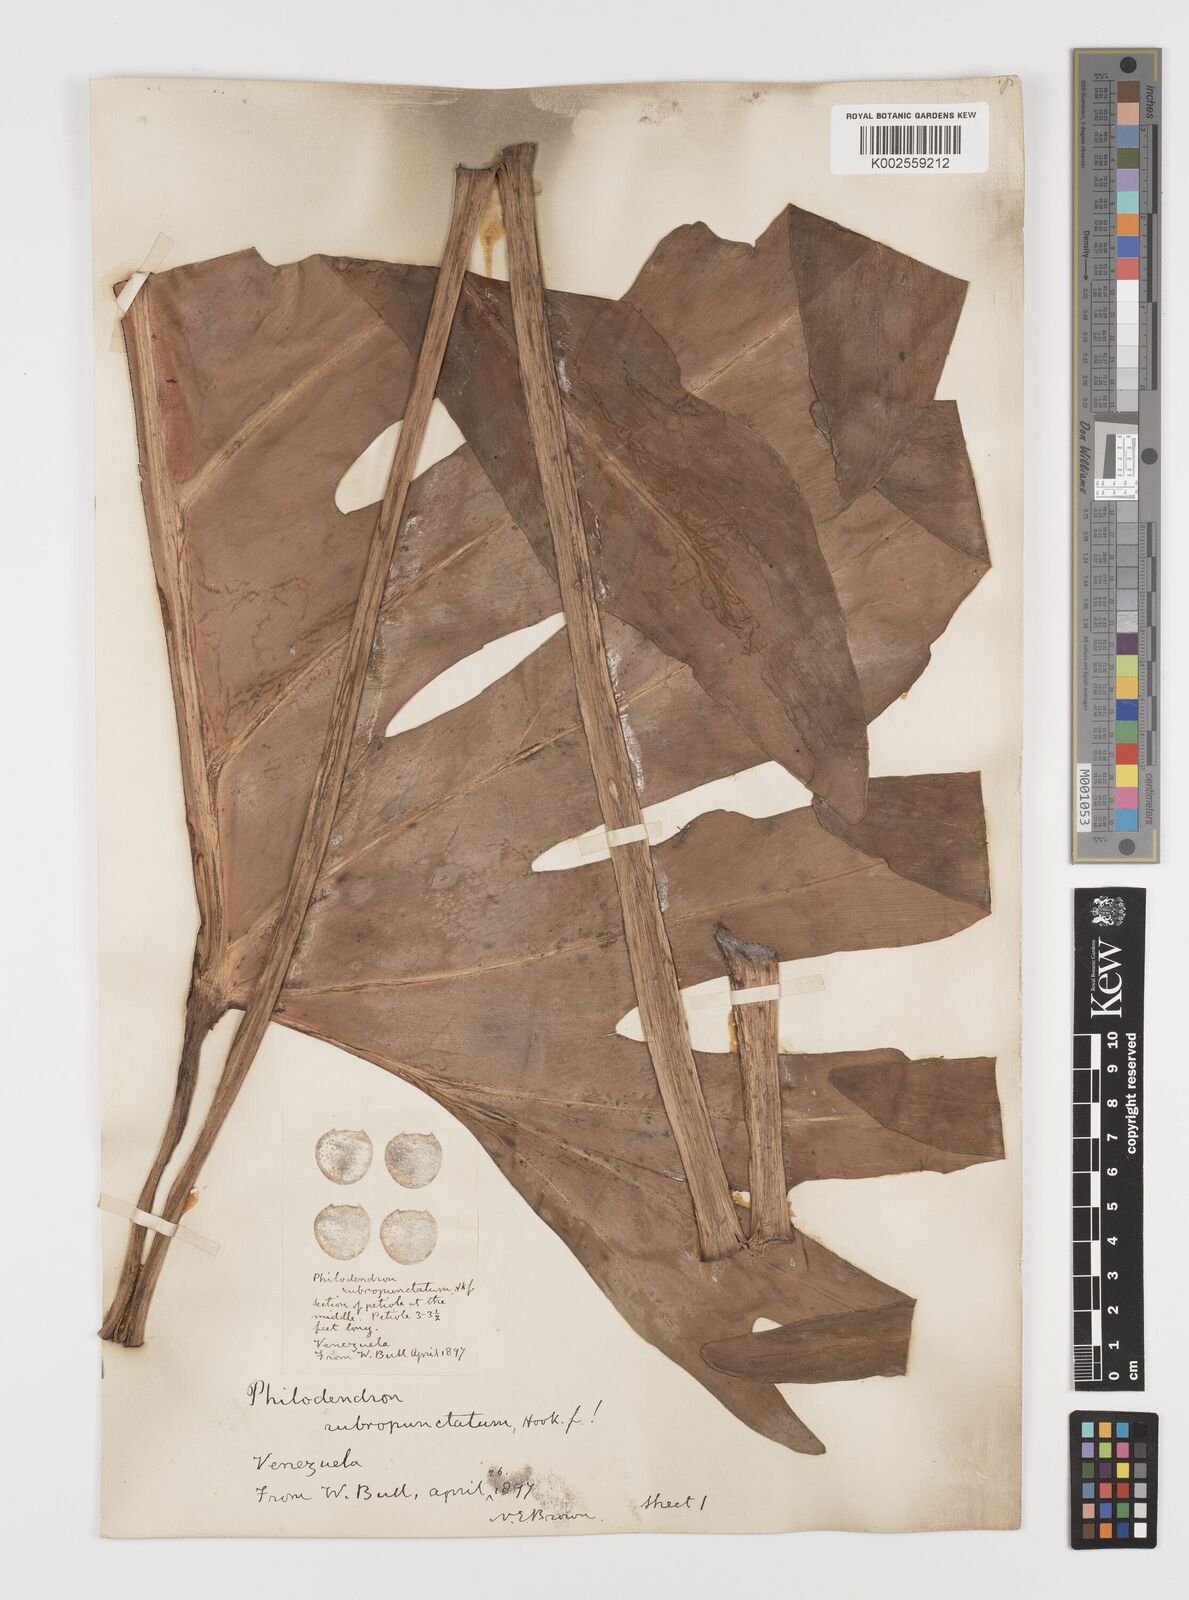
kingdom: Plantae
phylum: Tracheophyta
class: Liliopsida
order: Alismatales
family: Araceae
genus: Philodendron
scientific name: Philodendron pinnatifidum
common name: Comb-leaf philodendron
